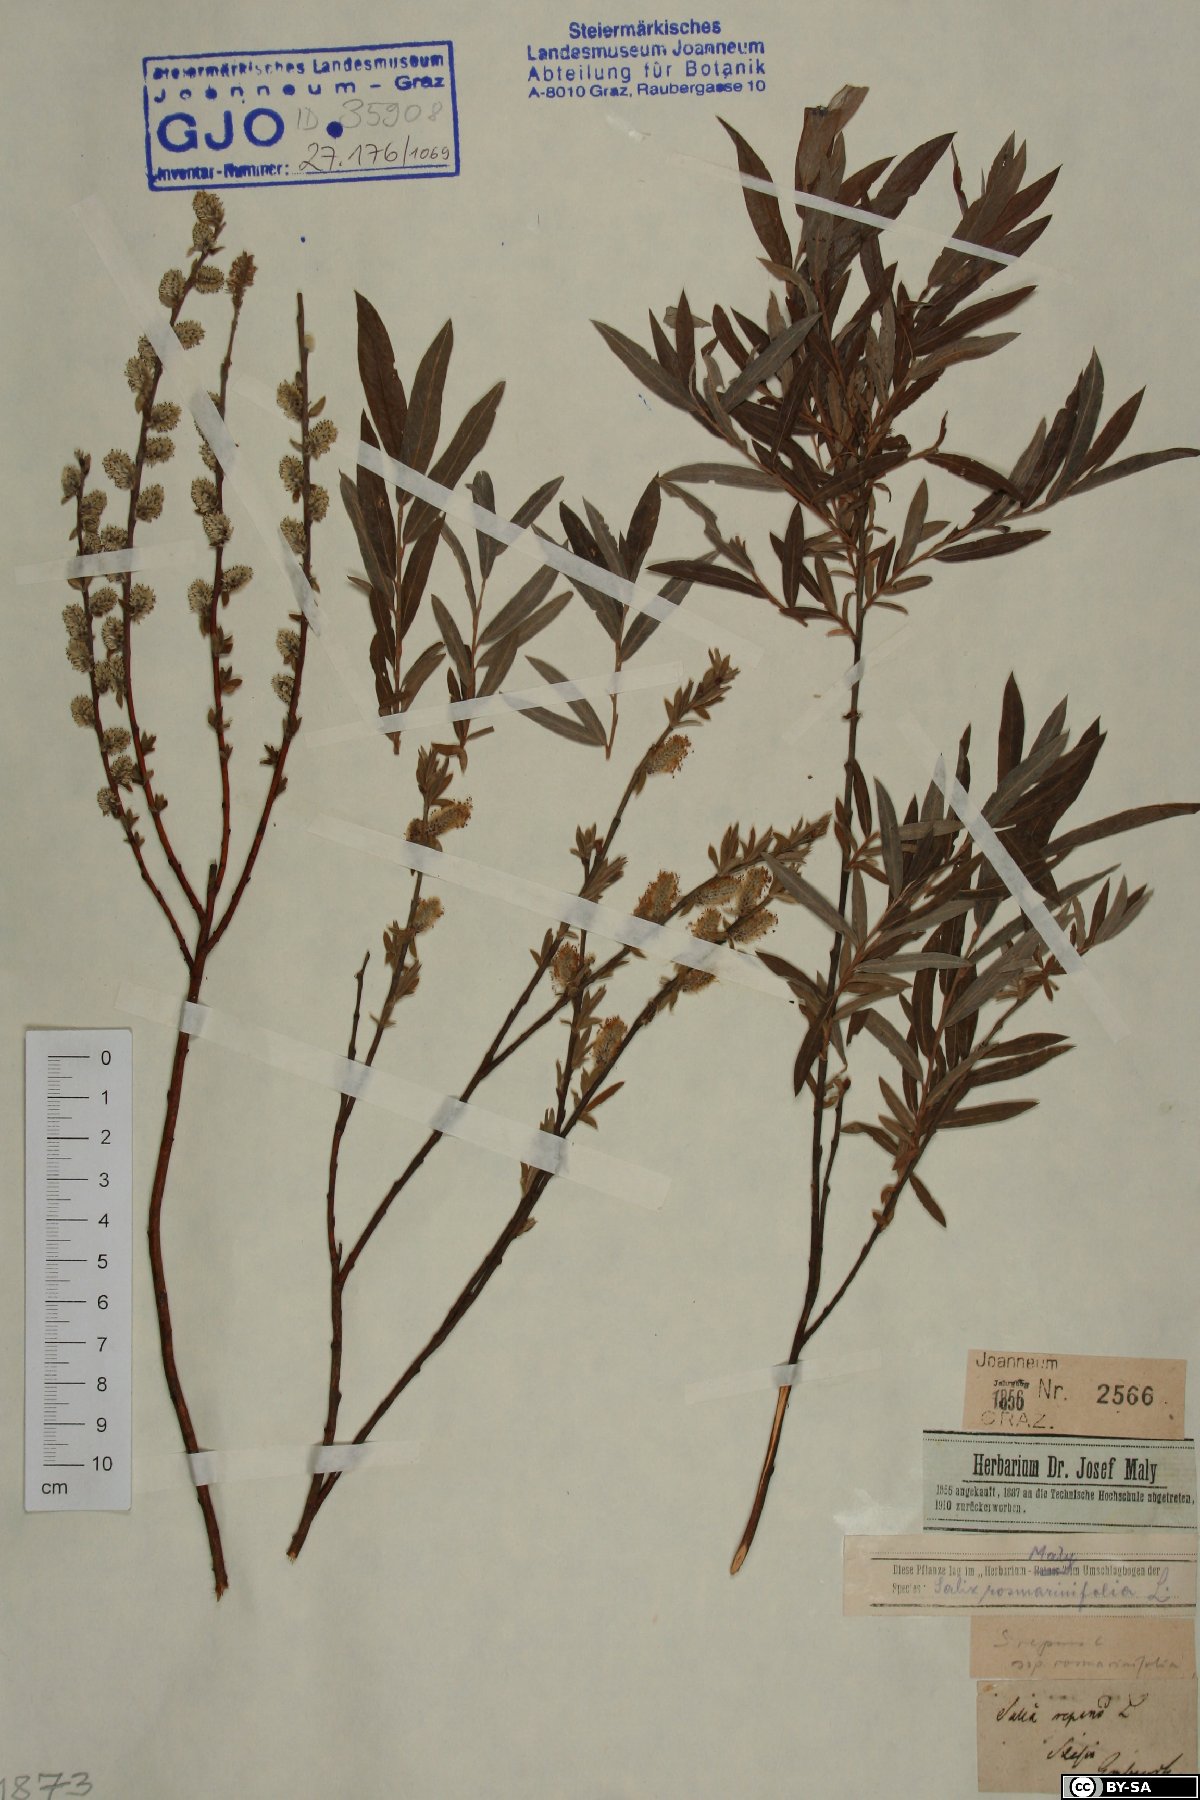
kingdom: Plantae
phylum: Tracheophyta
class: Magnoliopsida
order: Malpighiales
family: Salicaceae
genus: Salix
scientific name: Salix repens
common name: Creeping willow
